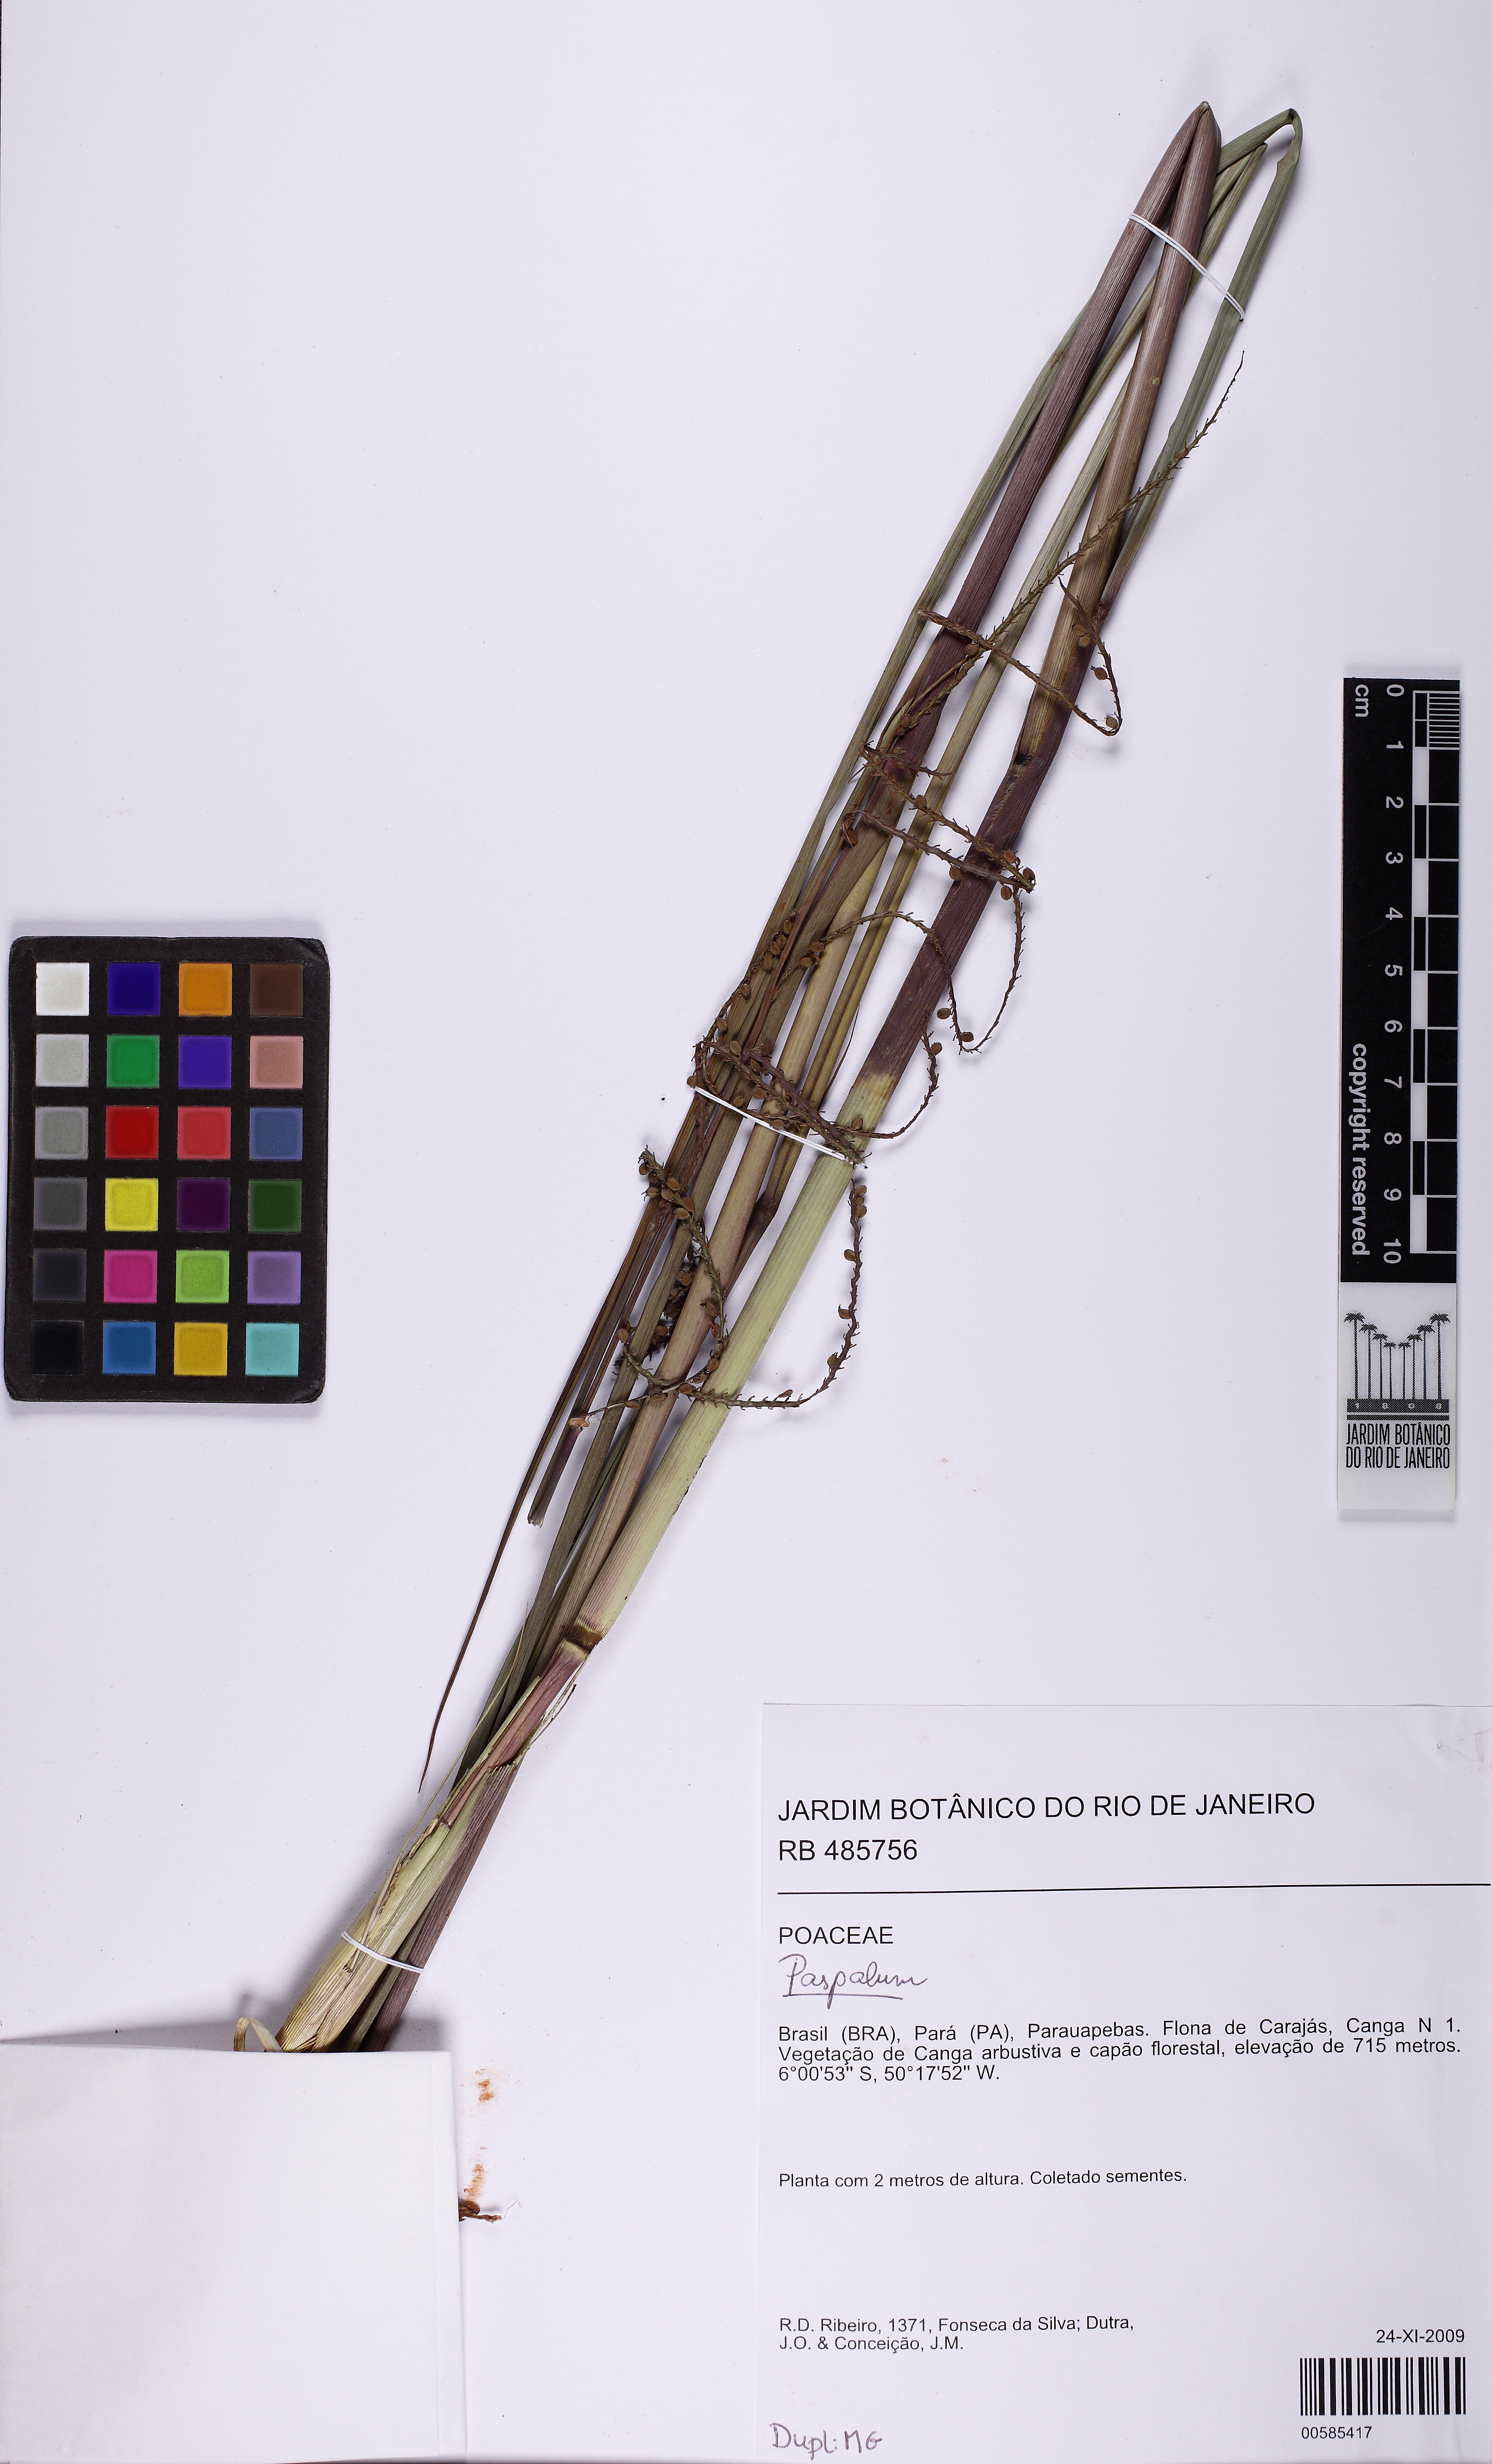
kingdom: Plantae
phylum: Tracheophyta
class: Liliopsida
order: Poales
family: Poaceae
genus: Paspalum
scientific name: Paspalum cinerascens
